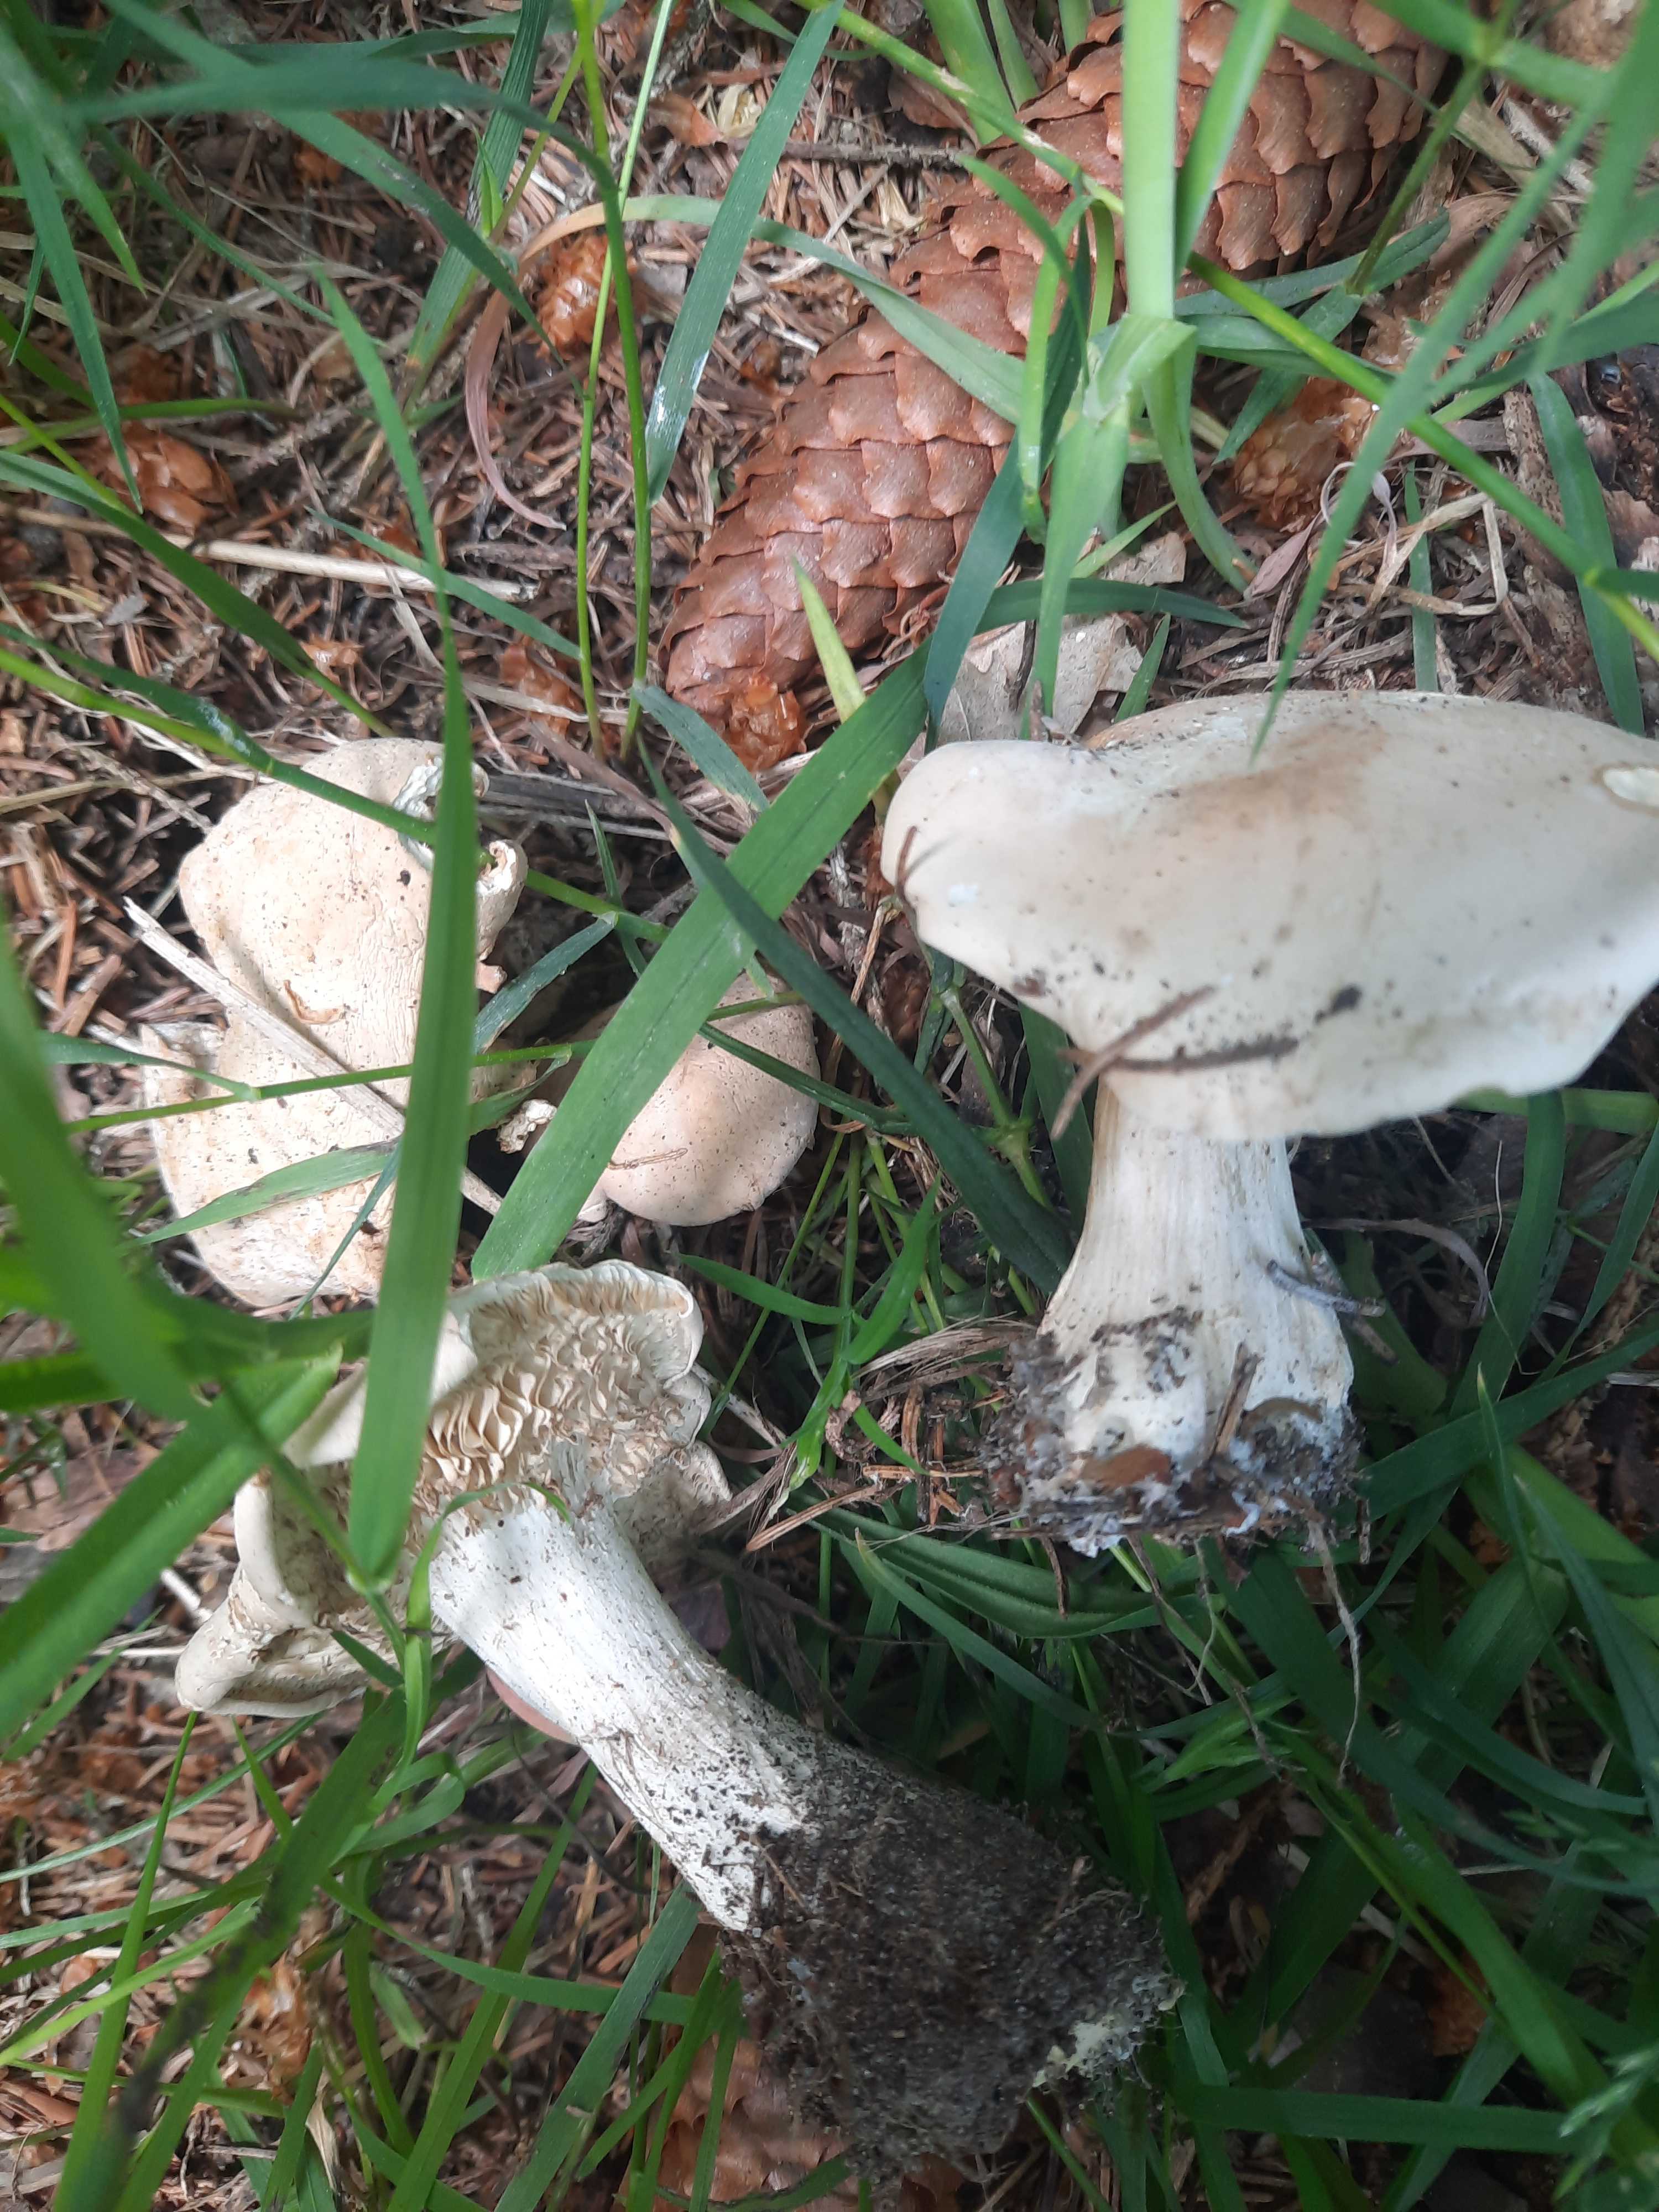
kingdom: Fungi
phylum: Basidiomycota
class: Agaricomycetes
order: Agaricales
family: Lyophyllaceae
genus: Calocybe
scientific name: Calocybe gambosa
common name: vårmusseron
